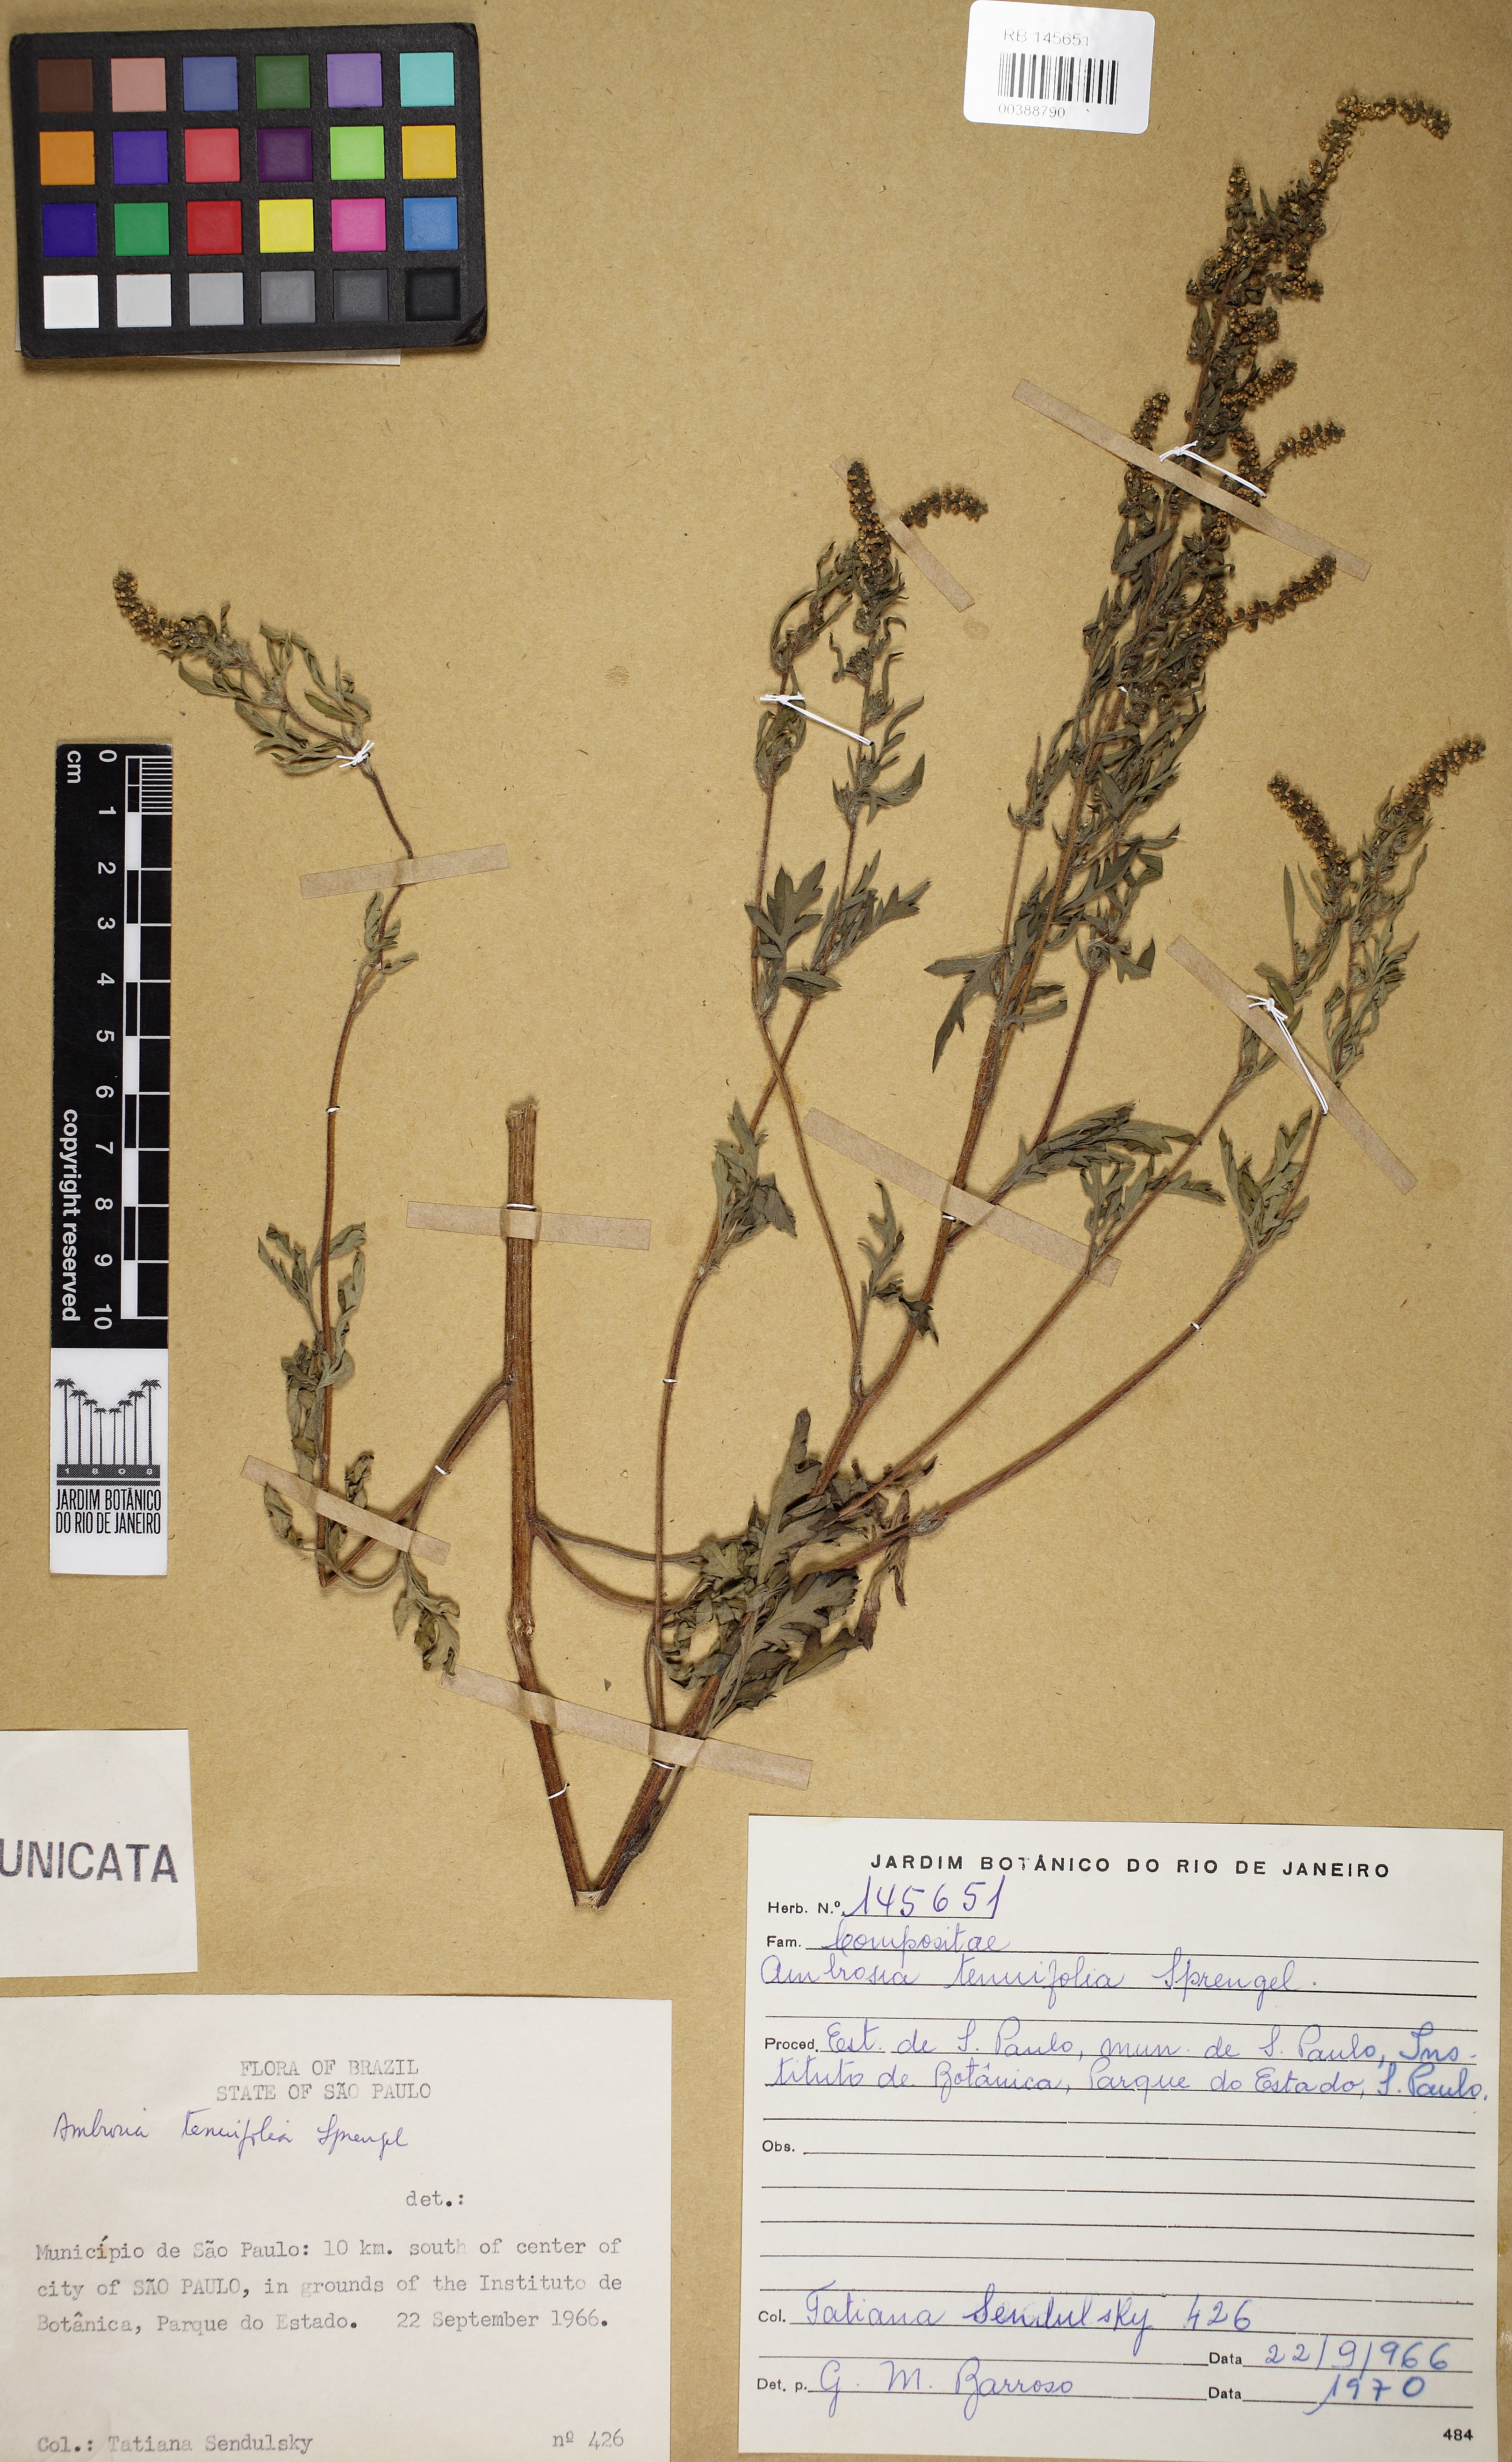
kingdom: Plantae
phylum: Tracheophyta
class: Magnoliopsida
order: Asterales
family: Asteraceae
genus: Ambrosia
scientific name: Ambrosia tenuifolia
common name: Lacy ambrosia
